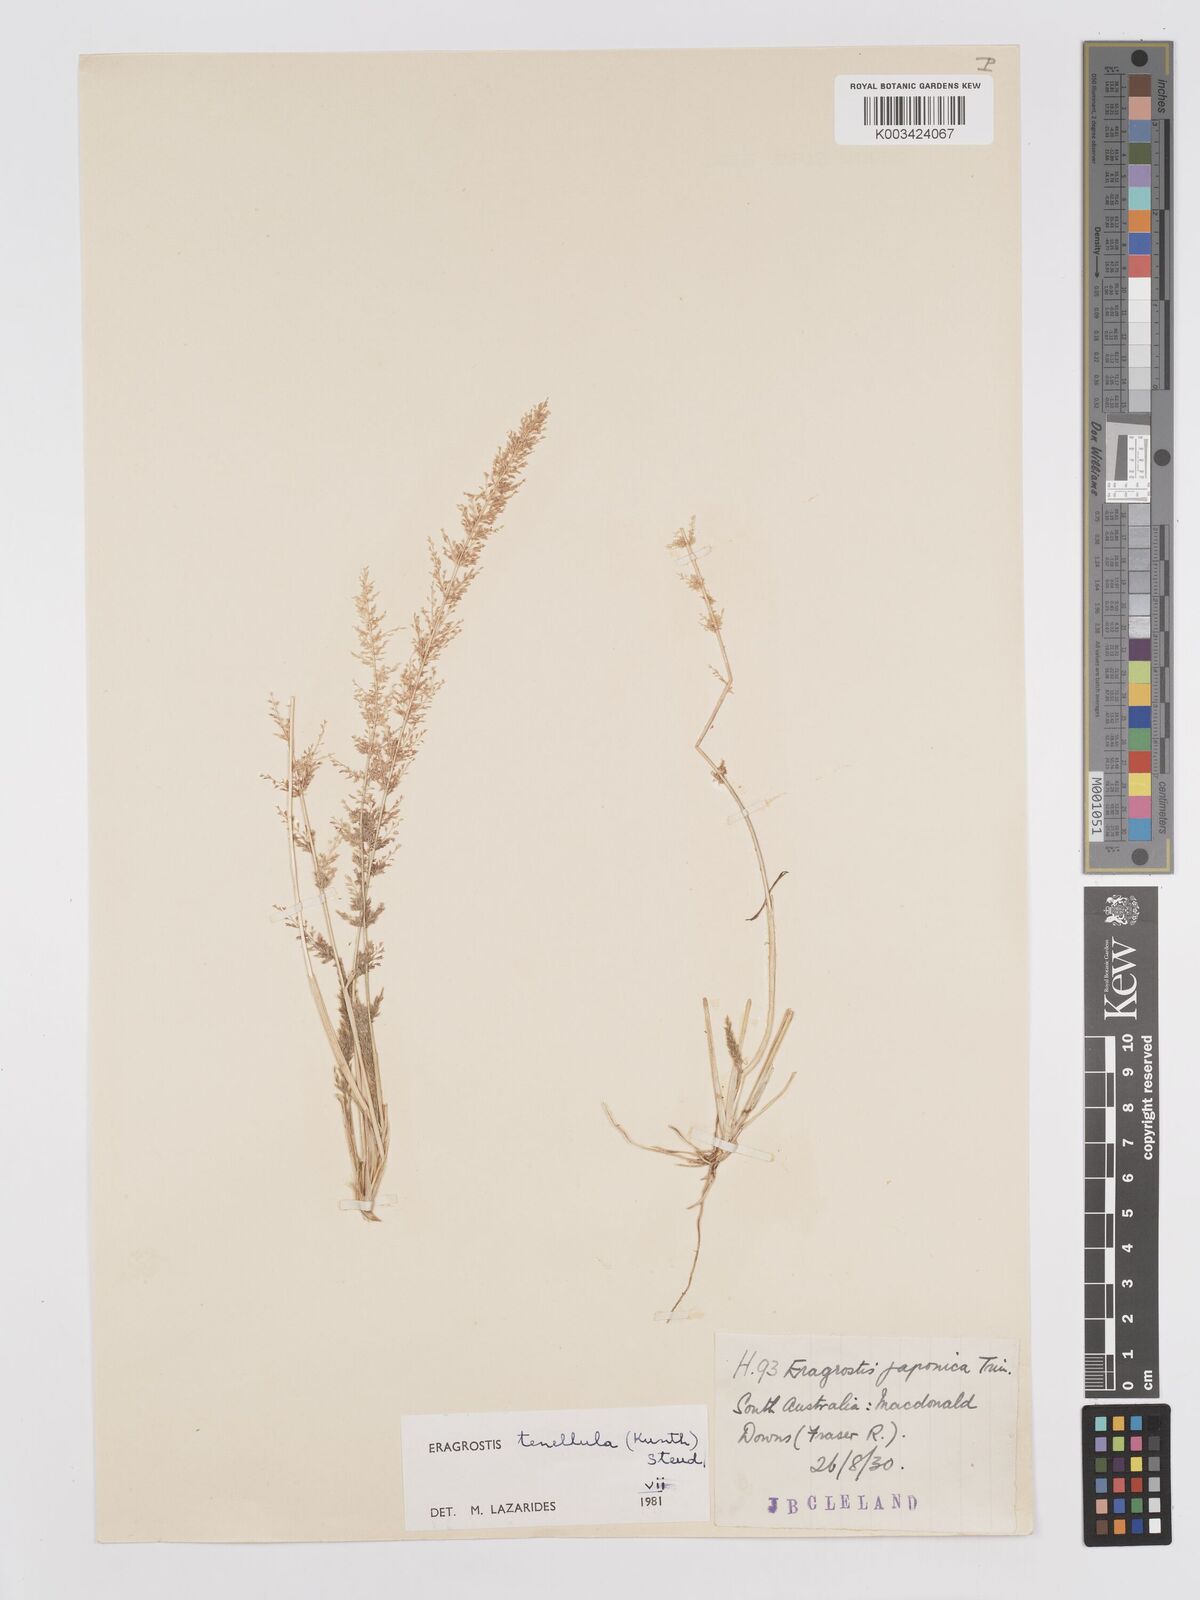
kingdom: Plantae
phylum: Tracheophyta
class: Liliopsida
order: Poales
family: Poaceae
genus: Eragrostis
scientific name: Eragrostis tenellula
